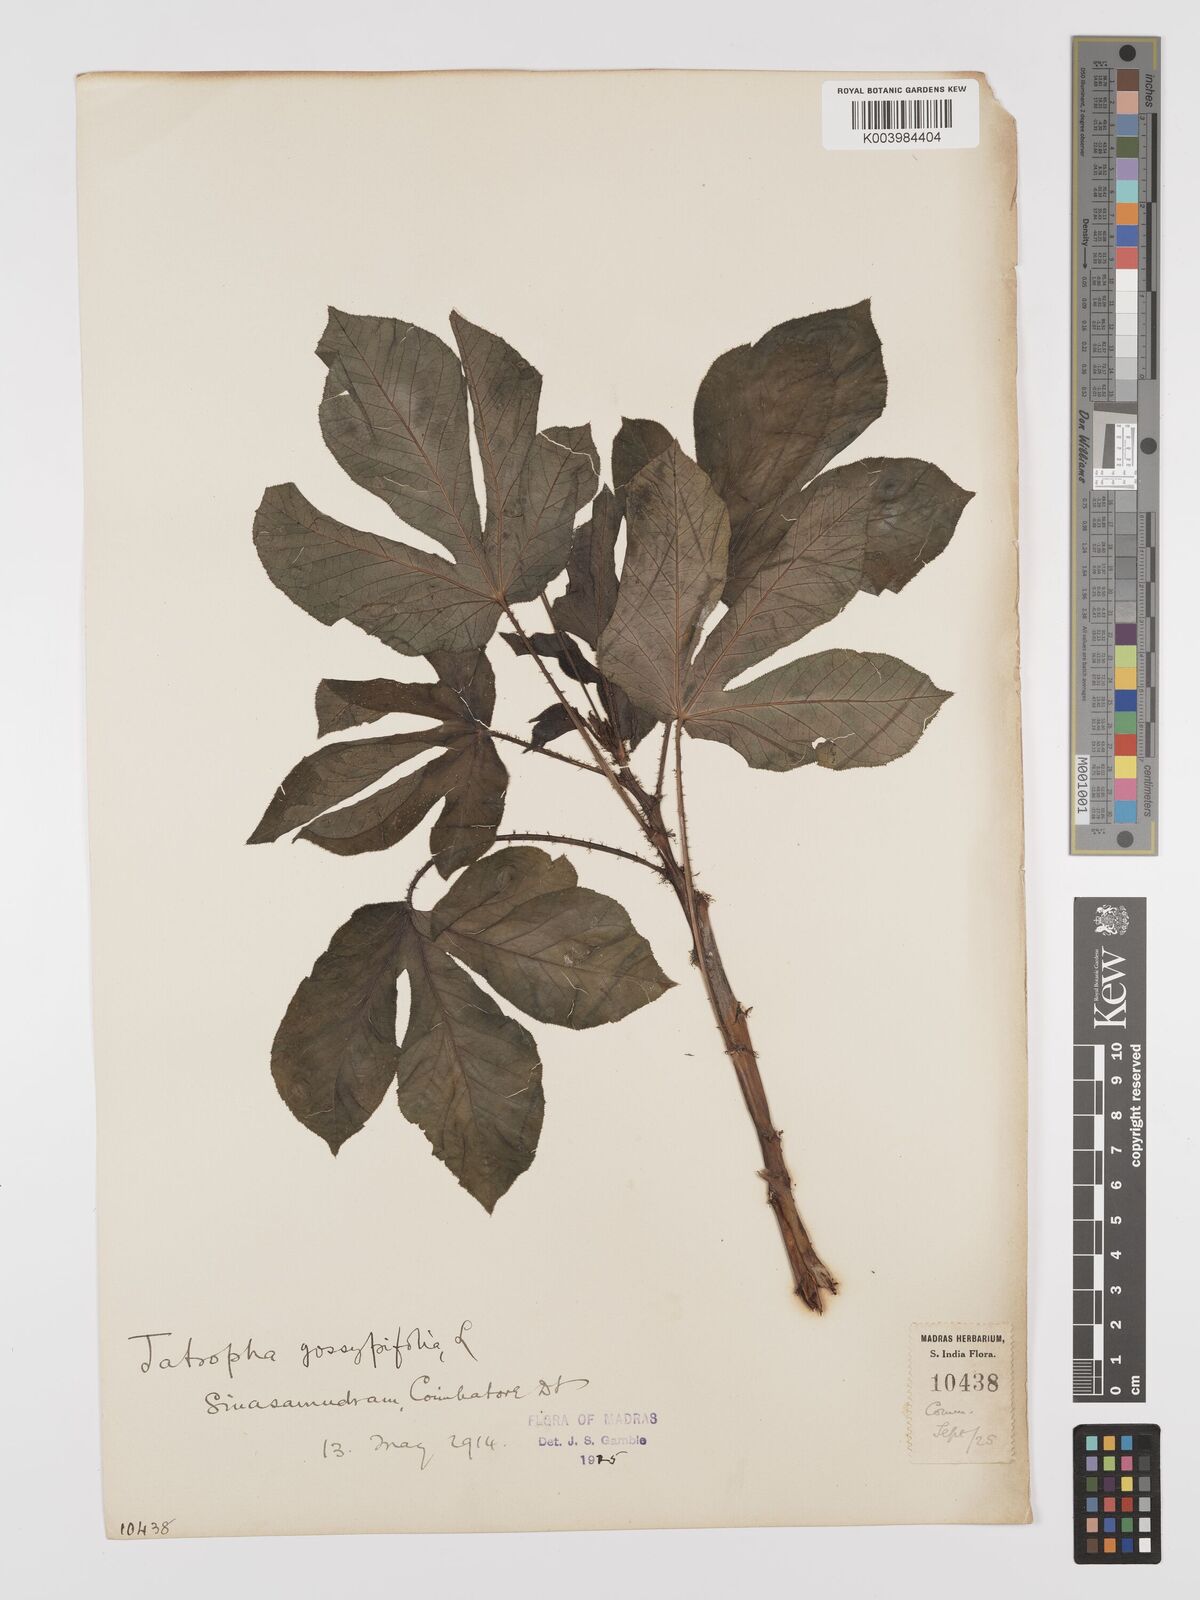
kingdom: Plantae
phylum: Tracheophyta
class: Magnoliopsida
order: Malpighiales
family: Euphorbiaceae
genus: Jatropha
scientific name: Jatropha gossypiifolia
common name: Bellyache bush
